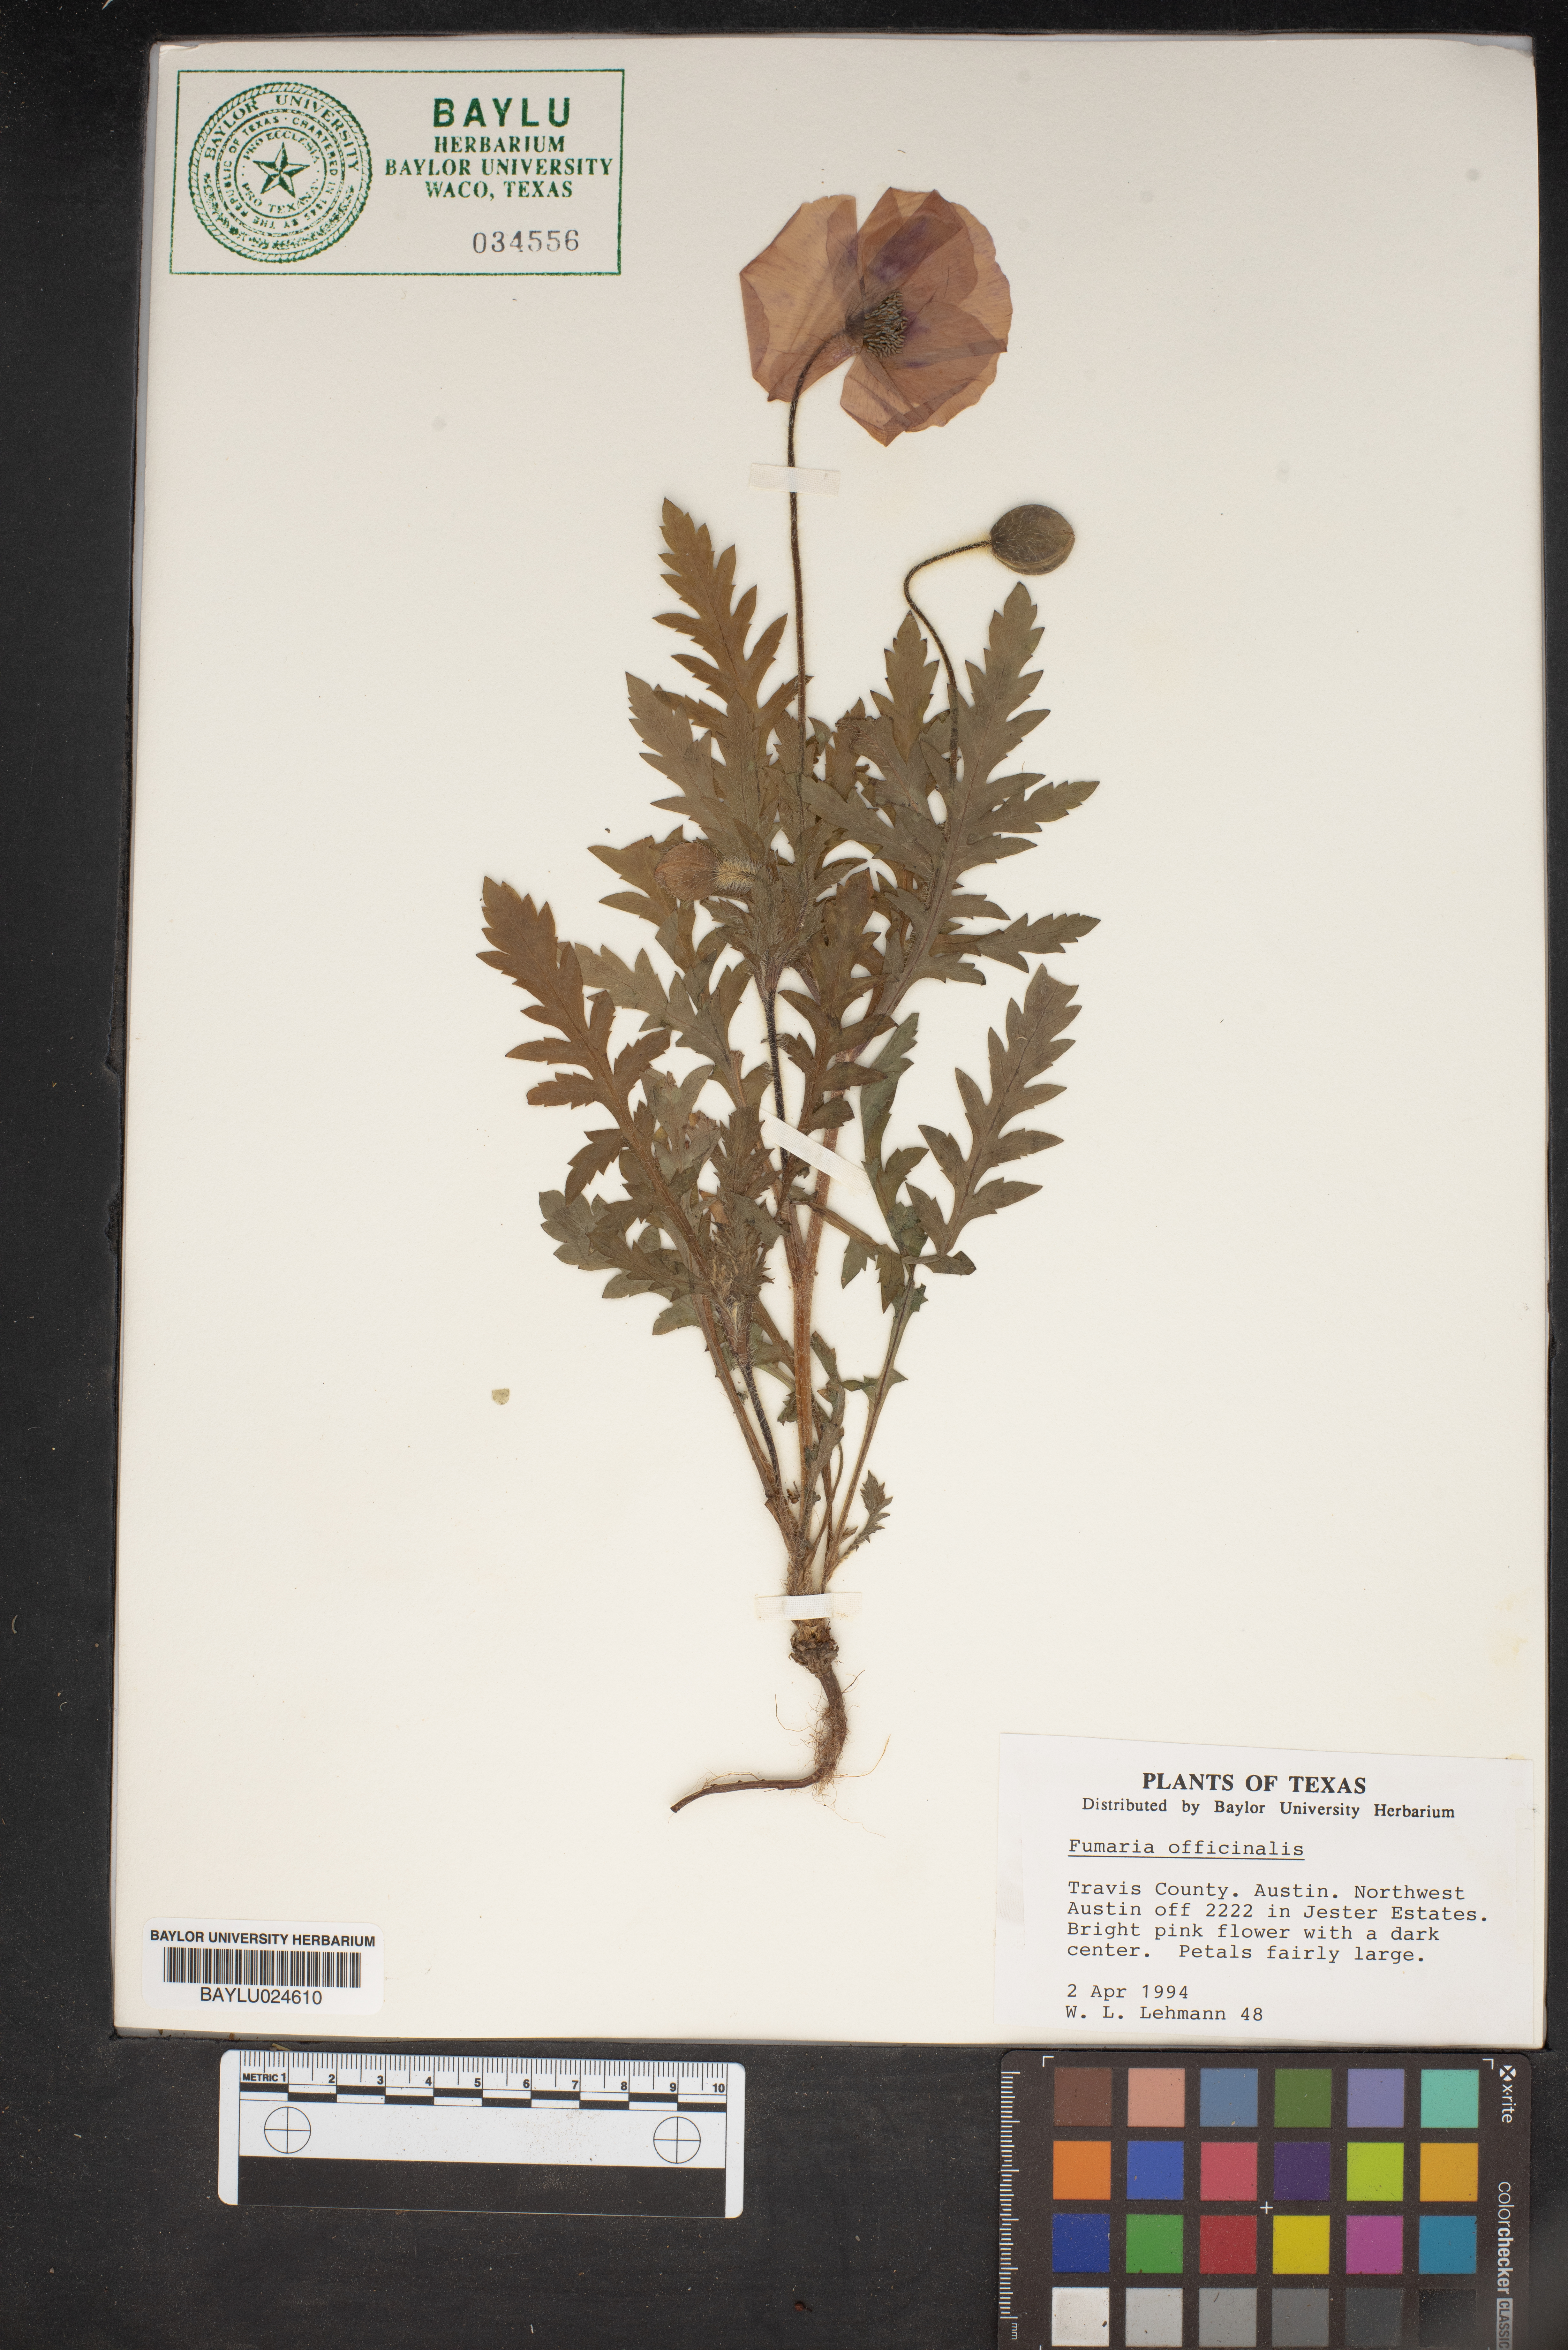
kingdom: Plantae
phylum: Tracheophyta
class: Magnoliopsida
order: Ranunculales
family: Papaveraceae
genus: Fumaria
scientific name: Fumaria officinalis
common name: Common fumitory
